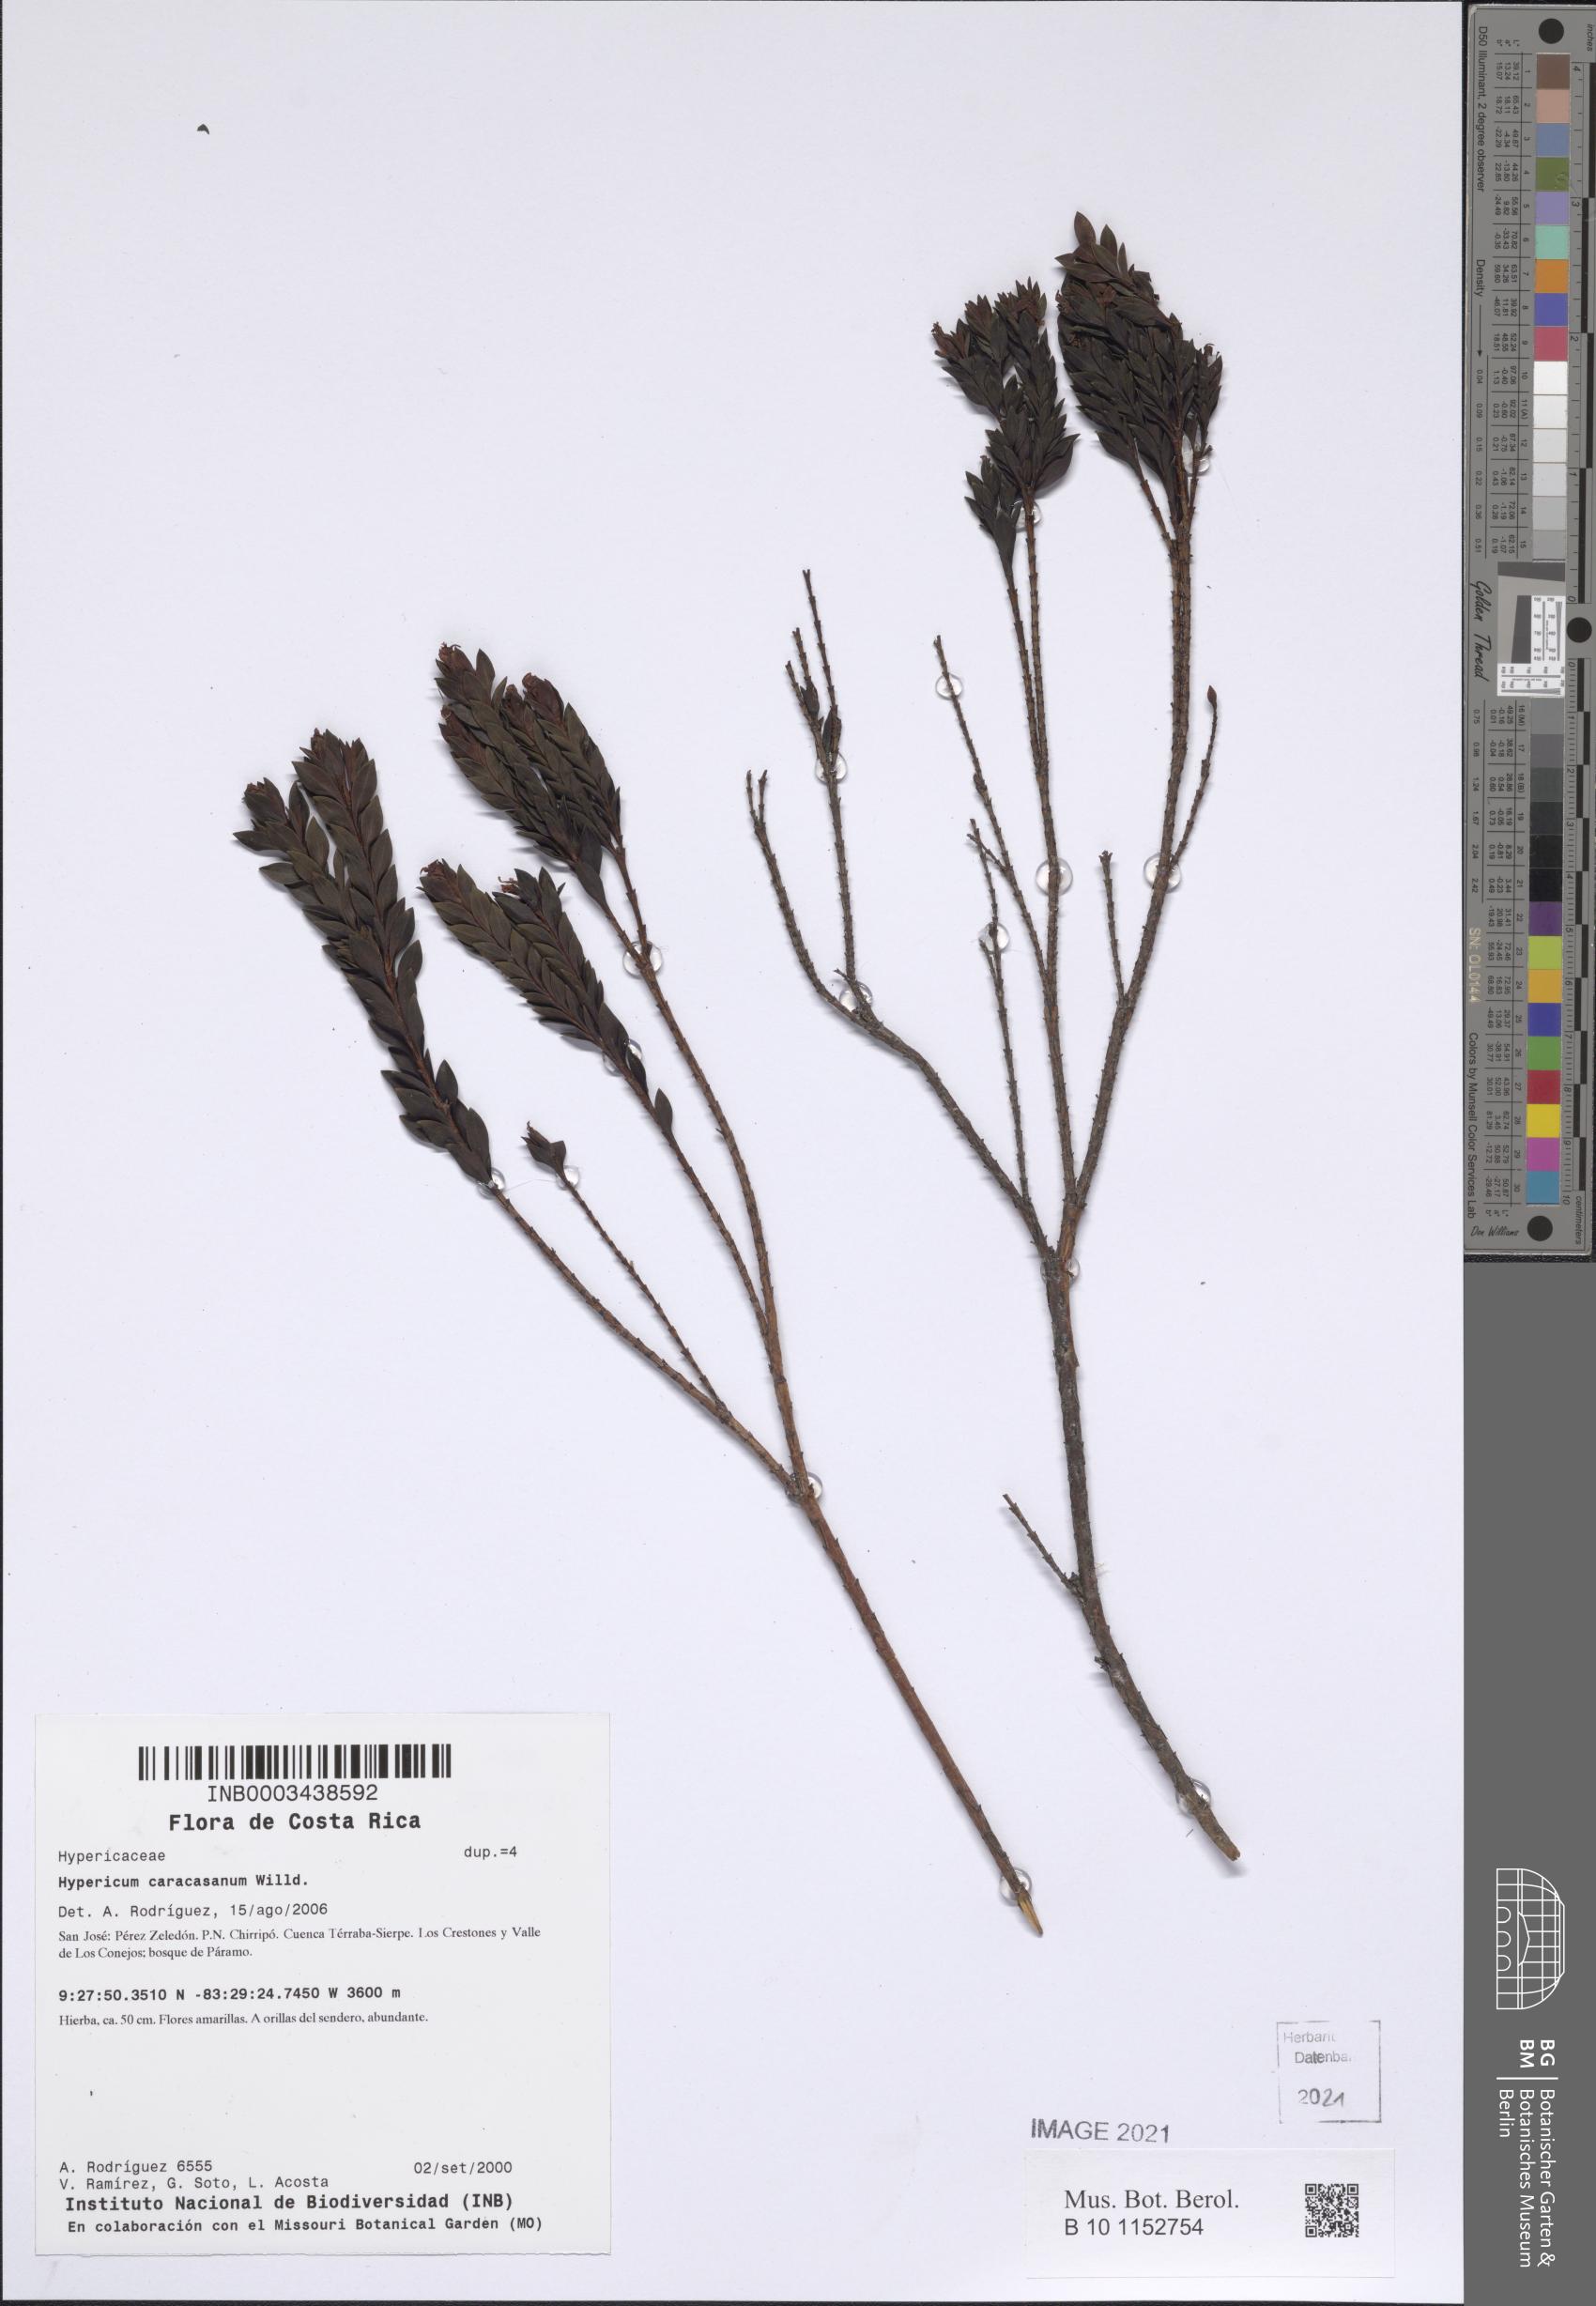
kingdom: Plantae
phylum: Tracheophyta
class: Magnoliopsida
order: Malpighiales
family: Hypericaceae
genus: Hypericum
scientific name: Hypericum cardonae
